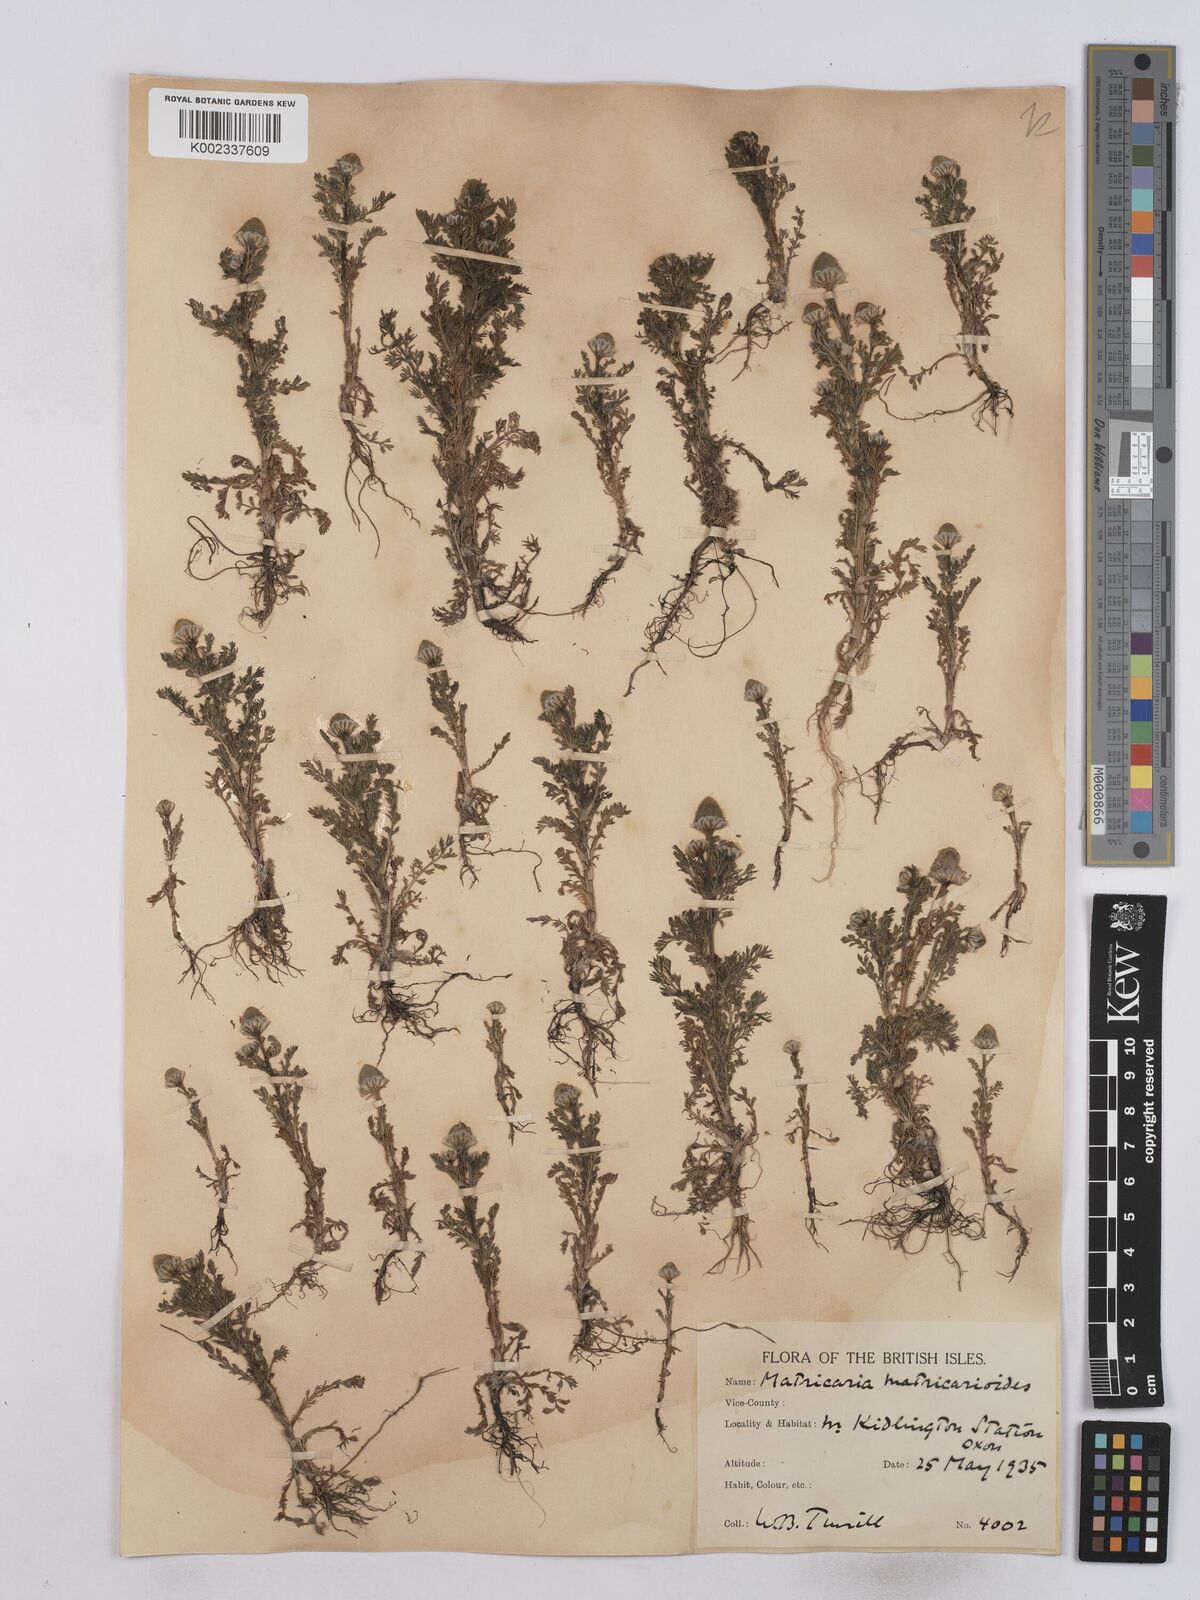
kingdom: Plantae
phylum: Tracheophyta
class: Magnoliopsida
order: Asterales
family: Asteraceae
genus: Matricaria
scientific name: Matricaria discoidea
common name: Disc mayweed
